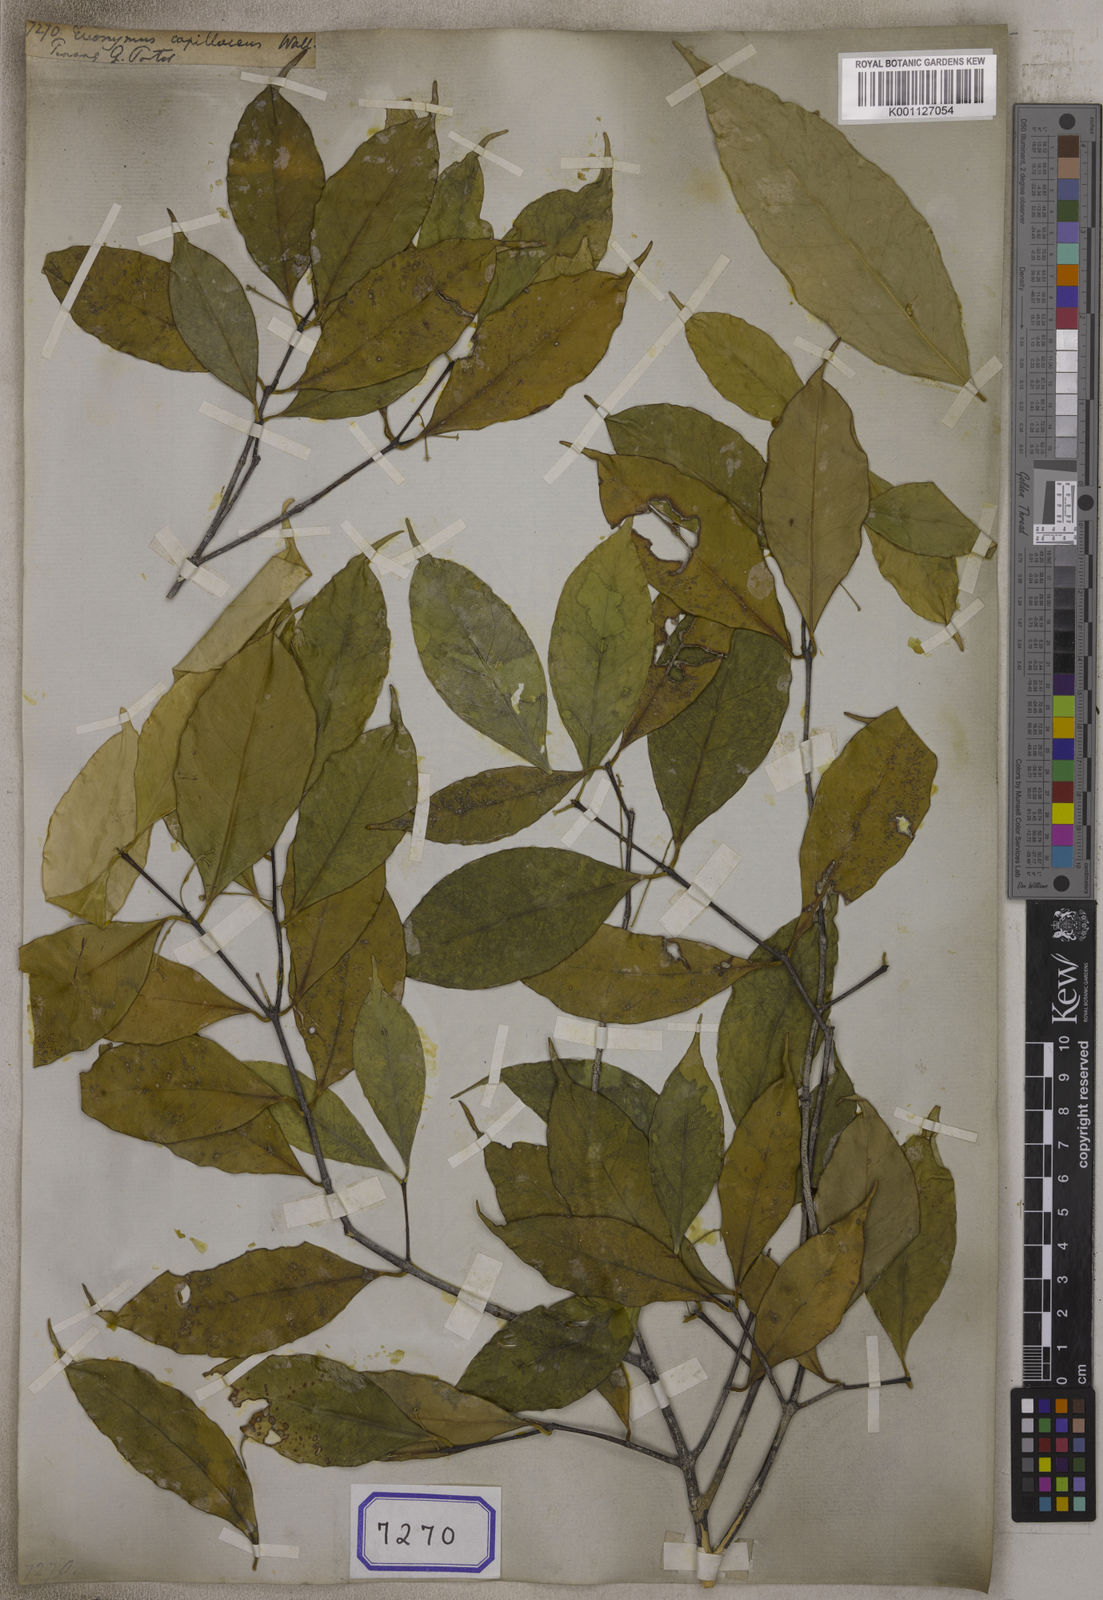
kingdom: Plantae
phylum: Tracheophyta
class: Magnoliopsida
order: Celastrales
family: Celastraceae
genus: Microtropis
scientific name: Microtropis bivalvis
